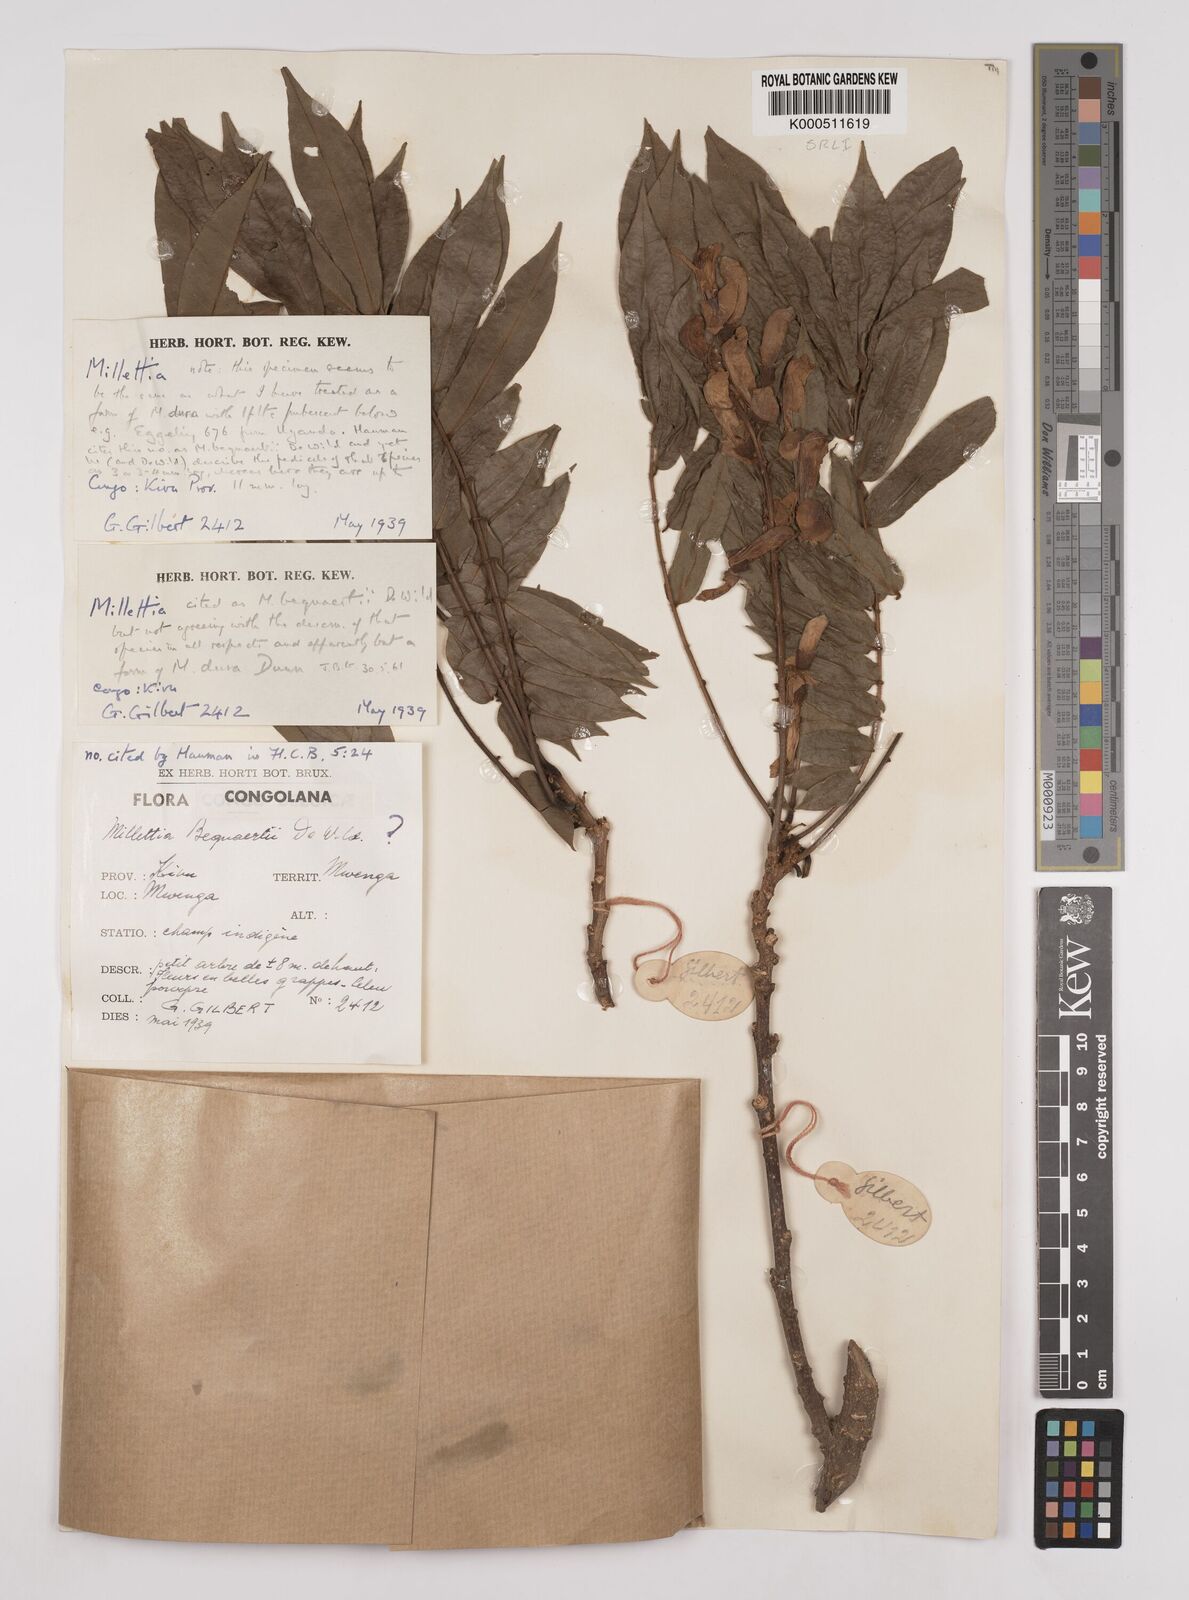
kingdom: Plantae
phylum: Tracheophyta
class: Magnoliopsida
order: Fabales
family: Fabaceae
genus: Millettia
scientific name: Millettia bequaertii
